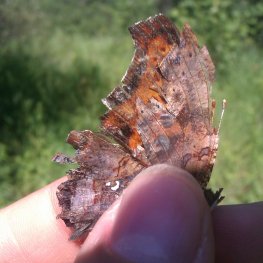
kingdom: Animalia
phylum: Arthropoda
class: Insecta
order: Lepidoptera
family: Nymphalidae
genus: Polygonia
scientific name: Polygonia interrogationis
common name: Question Mark
